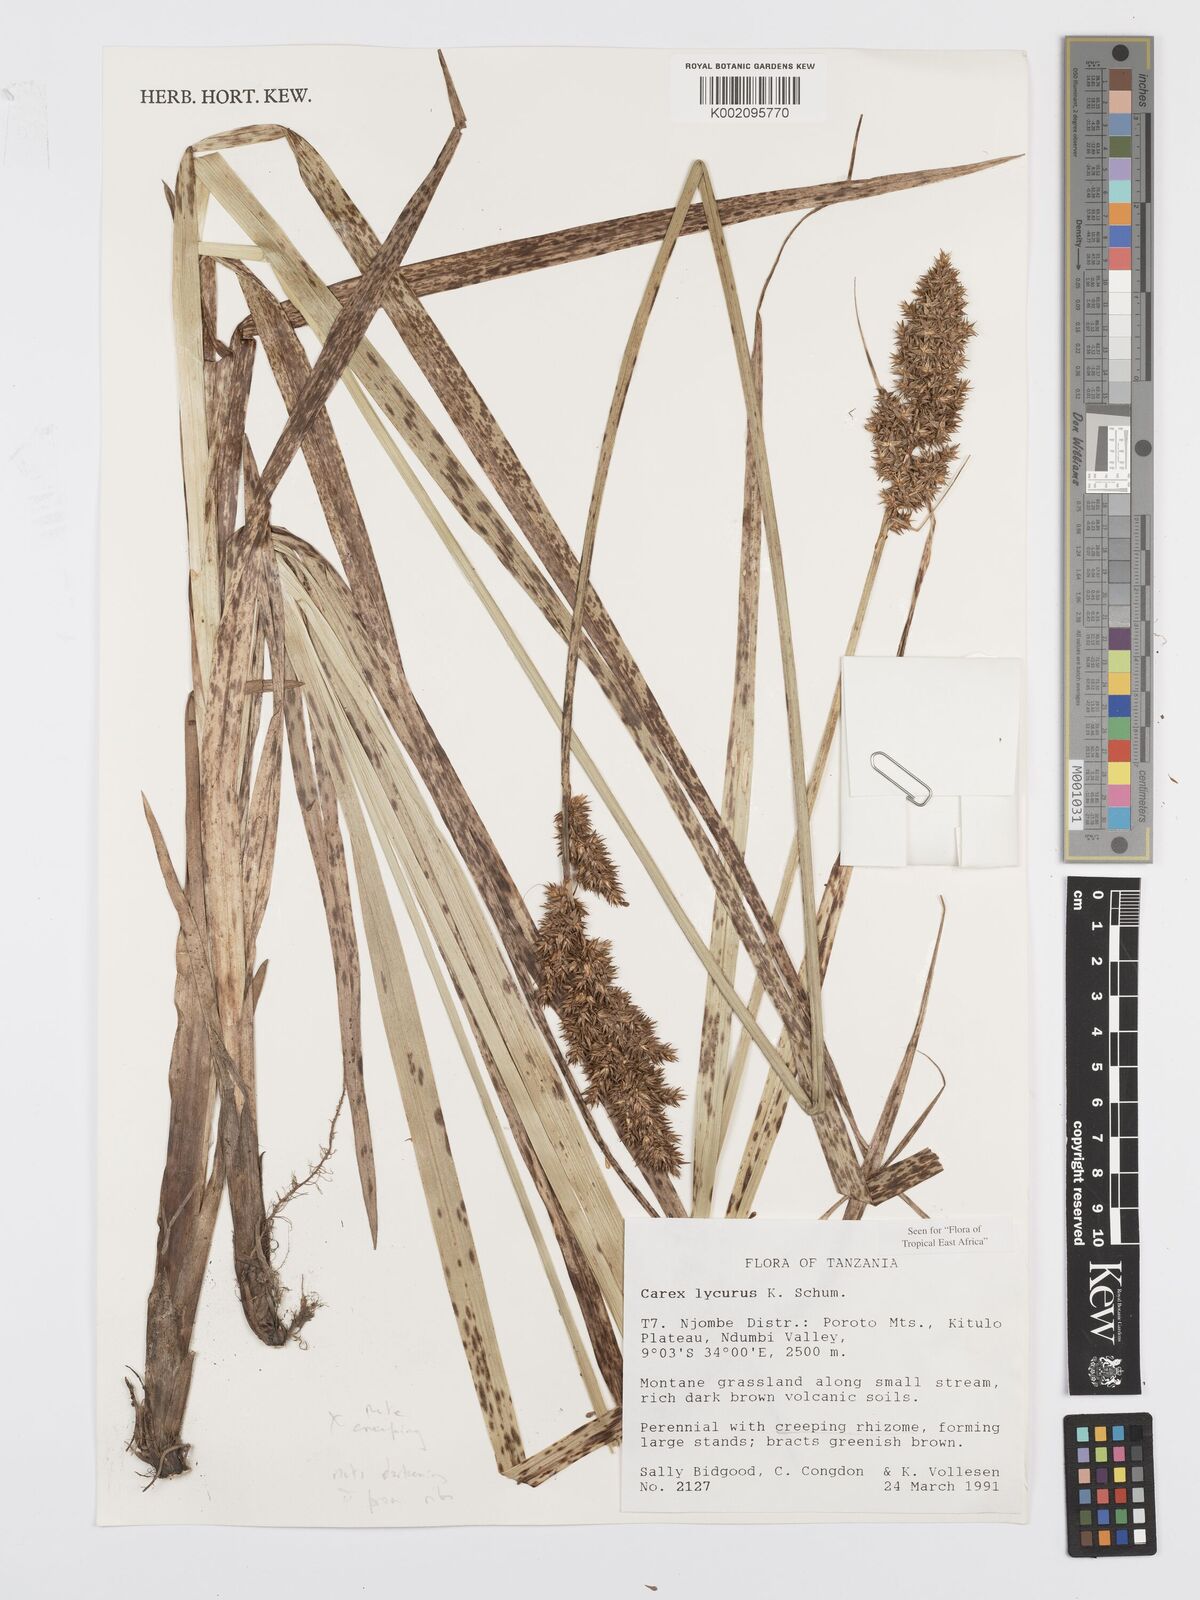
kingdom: Plantae
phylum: Tracheophyta
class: Liliopsida
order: Poales
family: Cyperaceae
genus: Carex
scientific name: Carex lycurus
